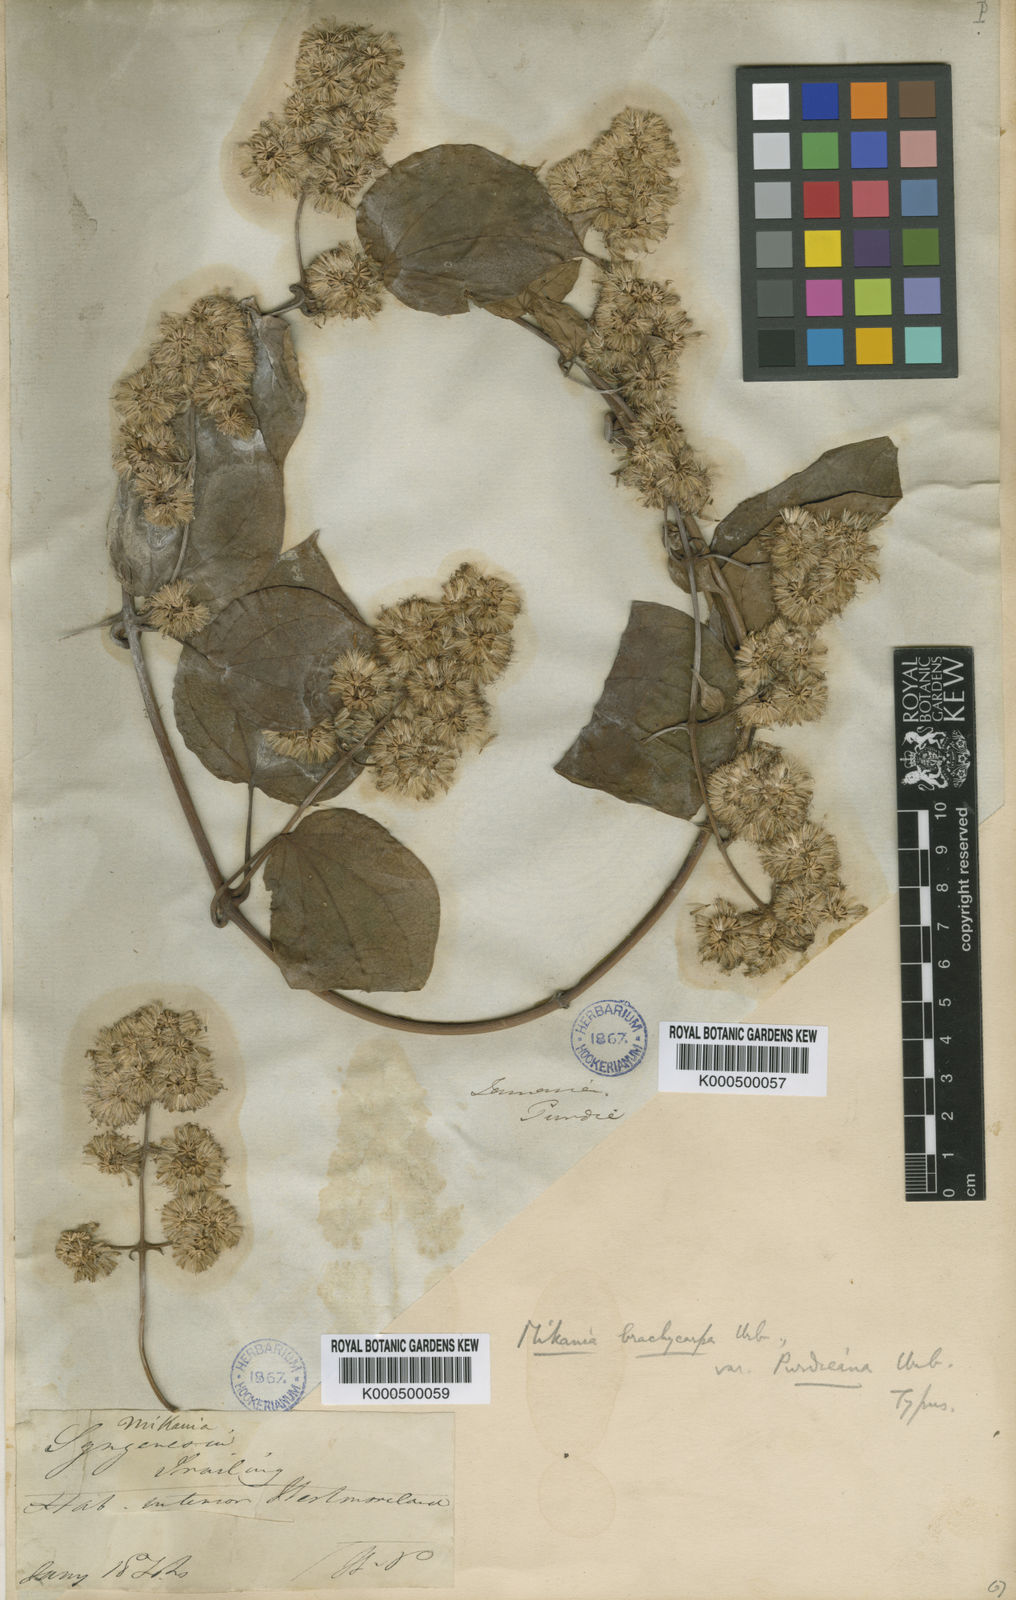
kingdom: Plantae
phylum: Tracheophyta
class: Magnoliopsida
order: Asterales
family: Asteraceae
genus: Mikania
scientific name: Mikania brachycarpa
